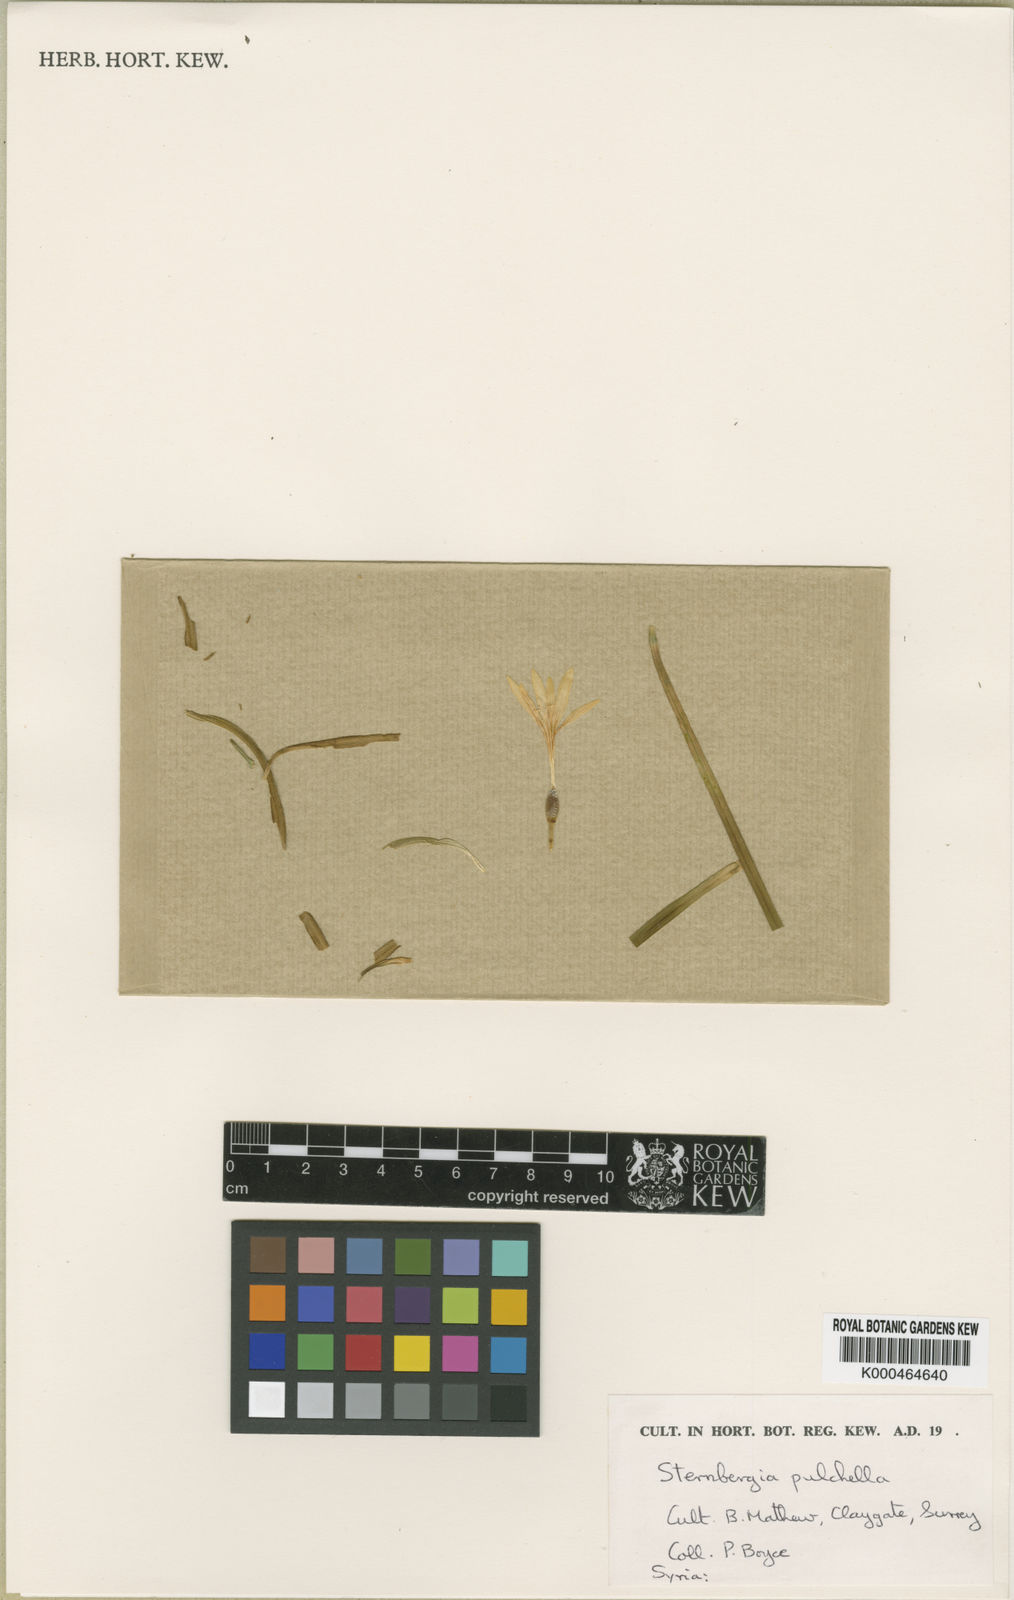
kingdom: Plantae
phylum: Tracheophyta
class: Liliopsida
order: Asparagales
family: Amaryllidaceae
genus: Sternbergia
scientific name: Sternbergia pulchella
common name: Pretty sternbergia
